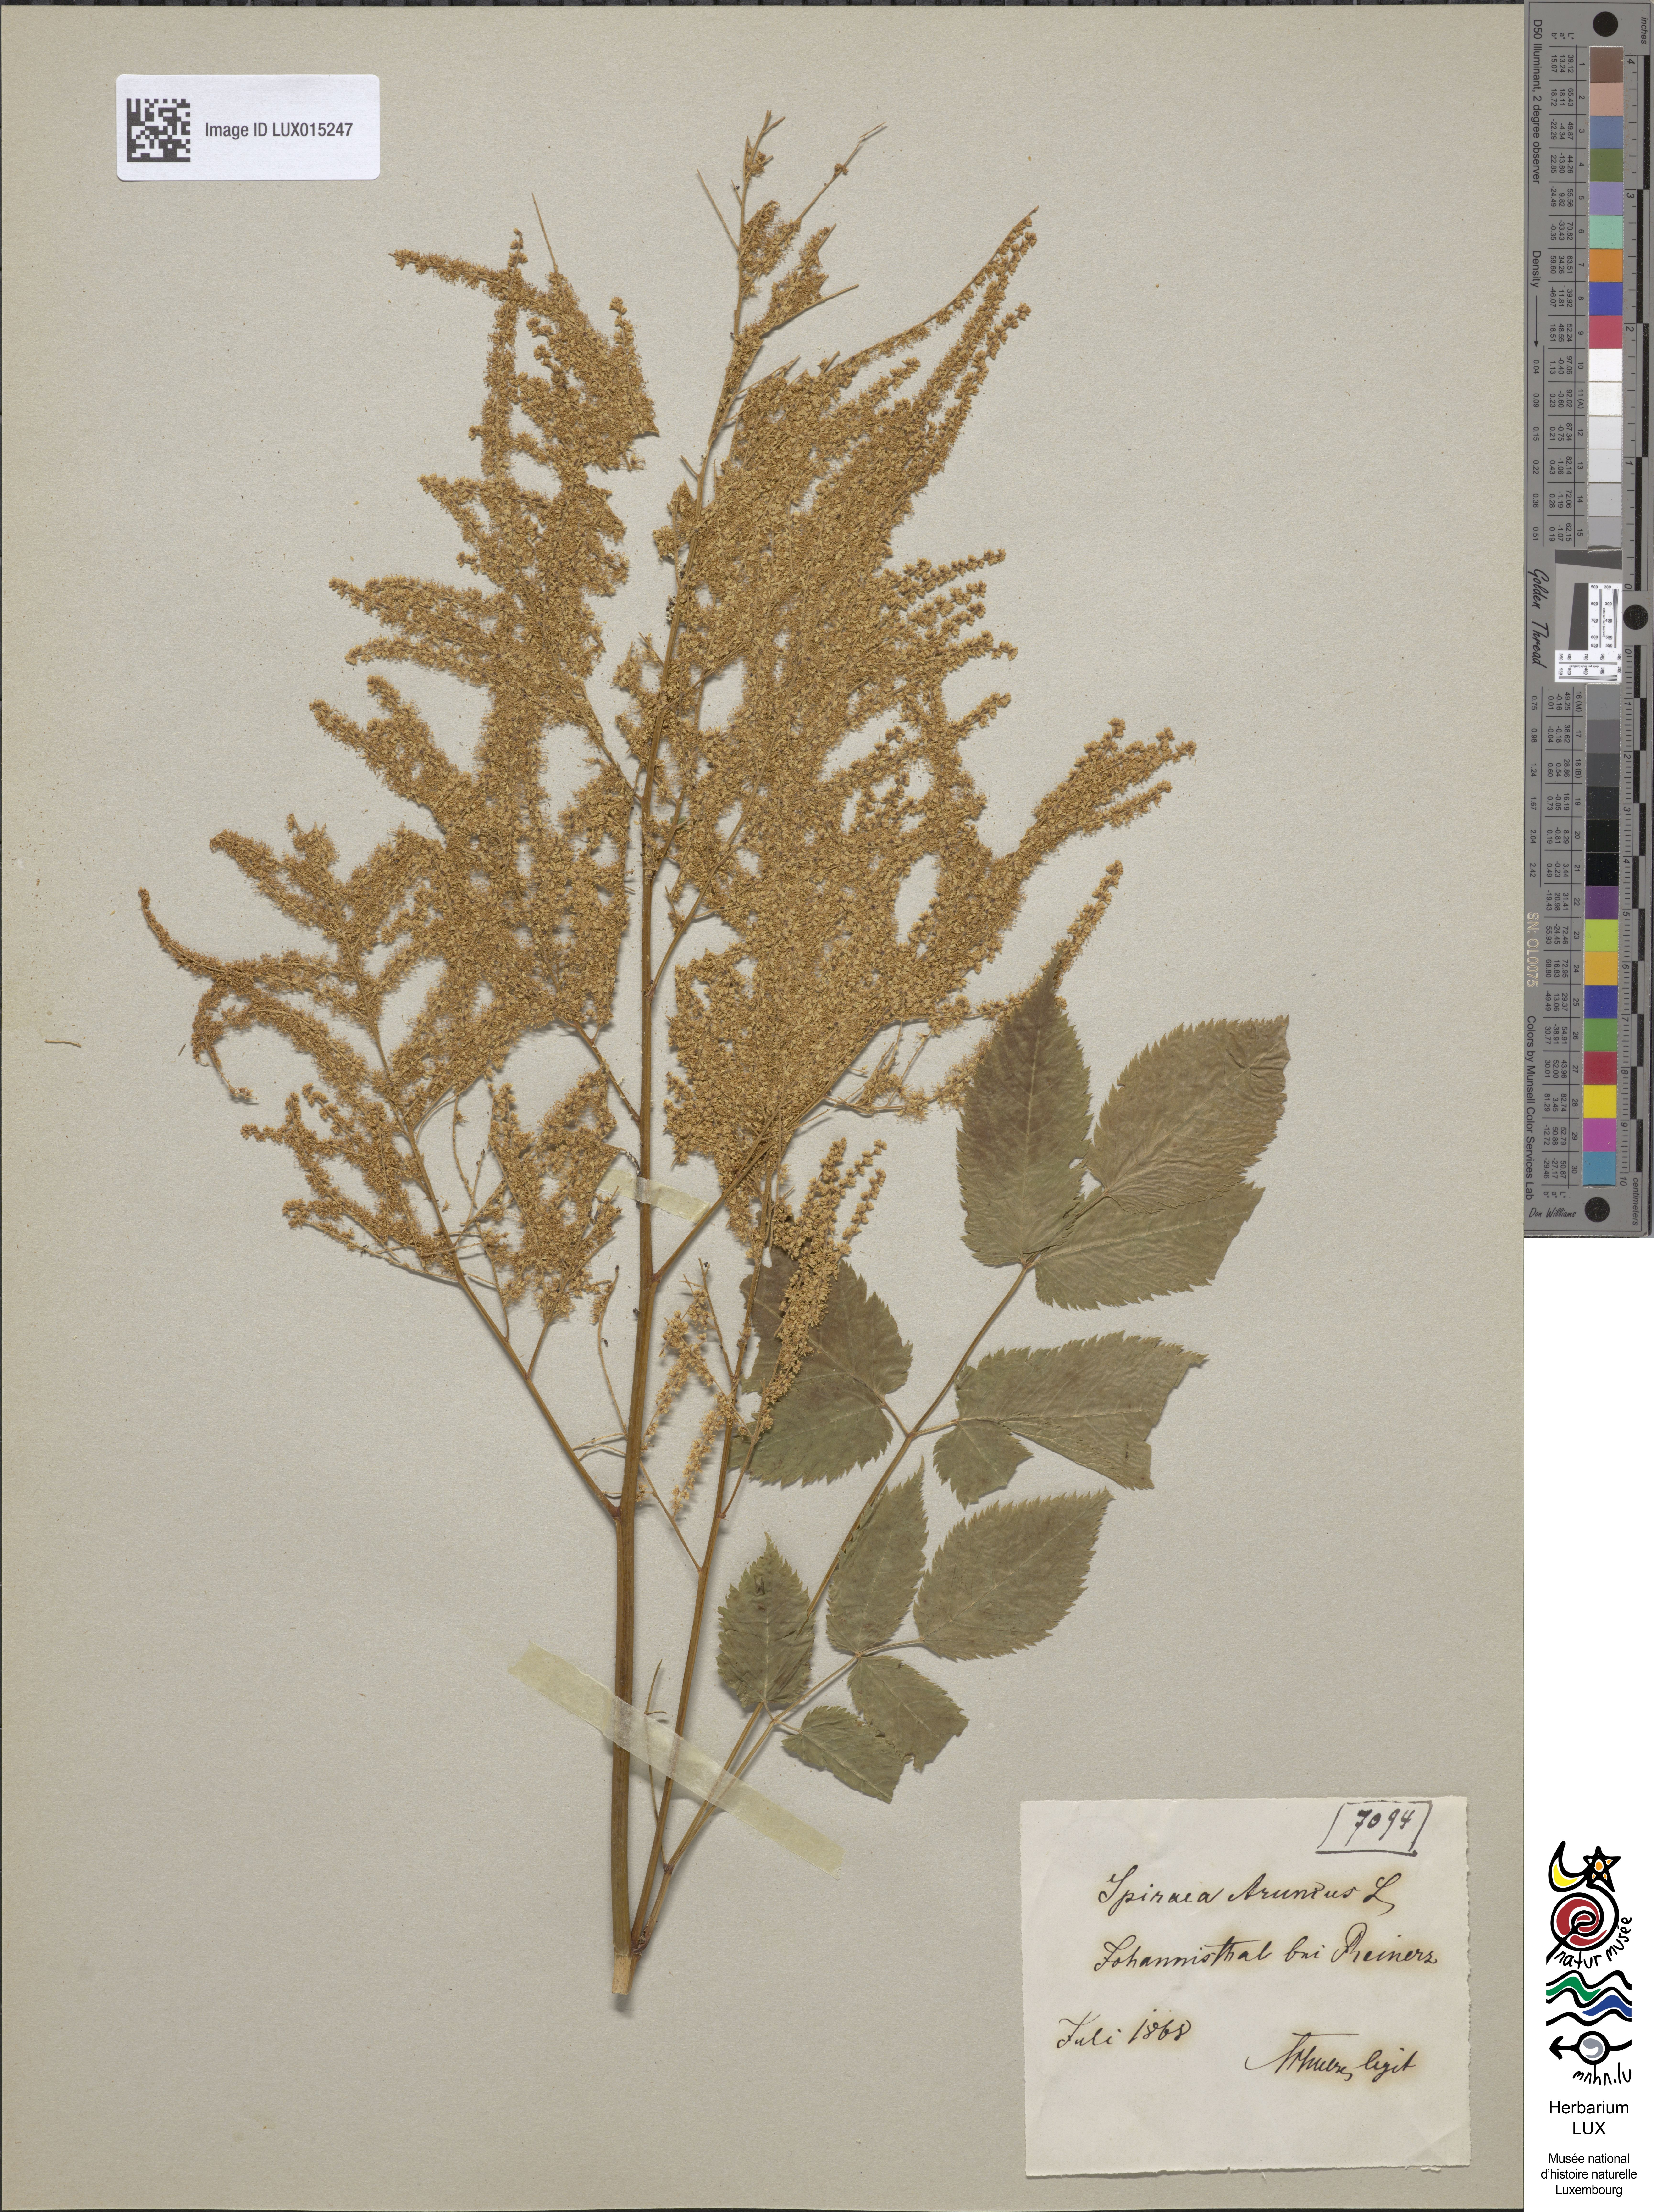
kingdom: Plantae
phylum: Tracheophyta
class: Magnoliopsida
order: Rosales
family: Rosaceae
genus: Aruncus
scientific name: Aruncus dioicus
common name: Buck's-beard
